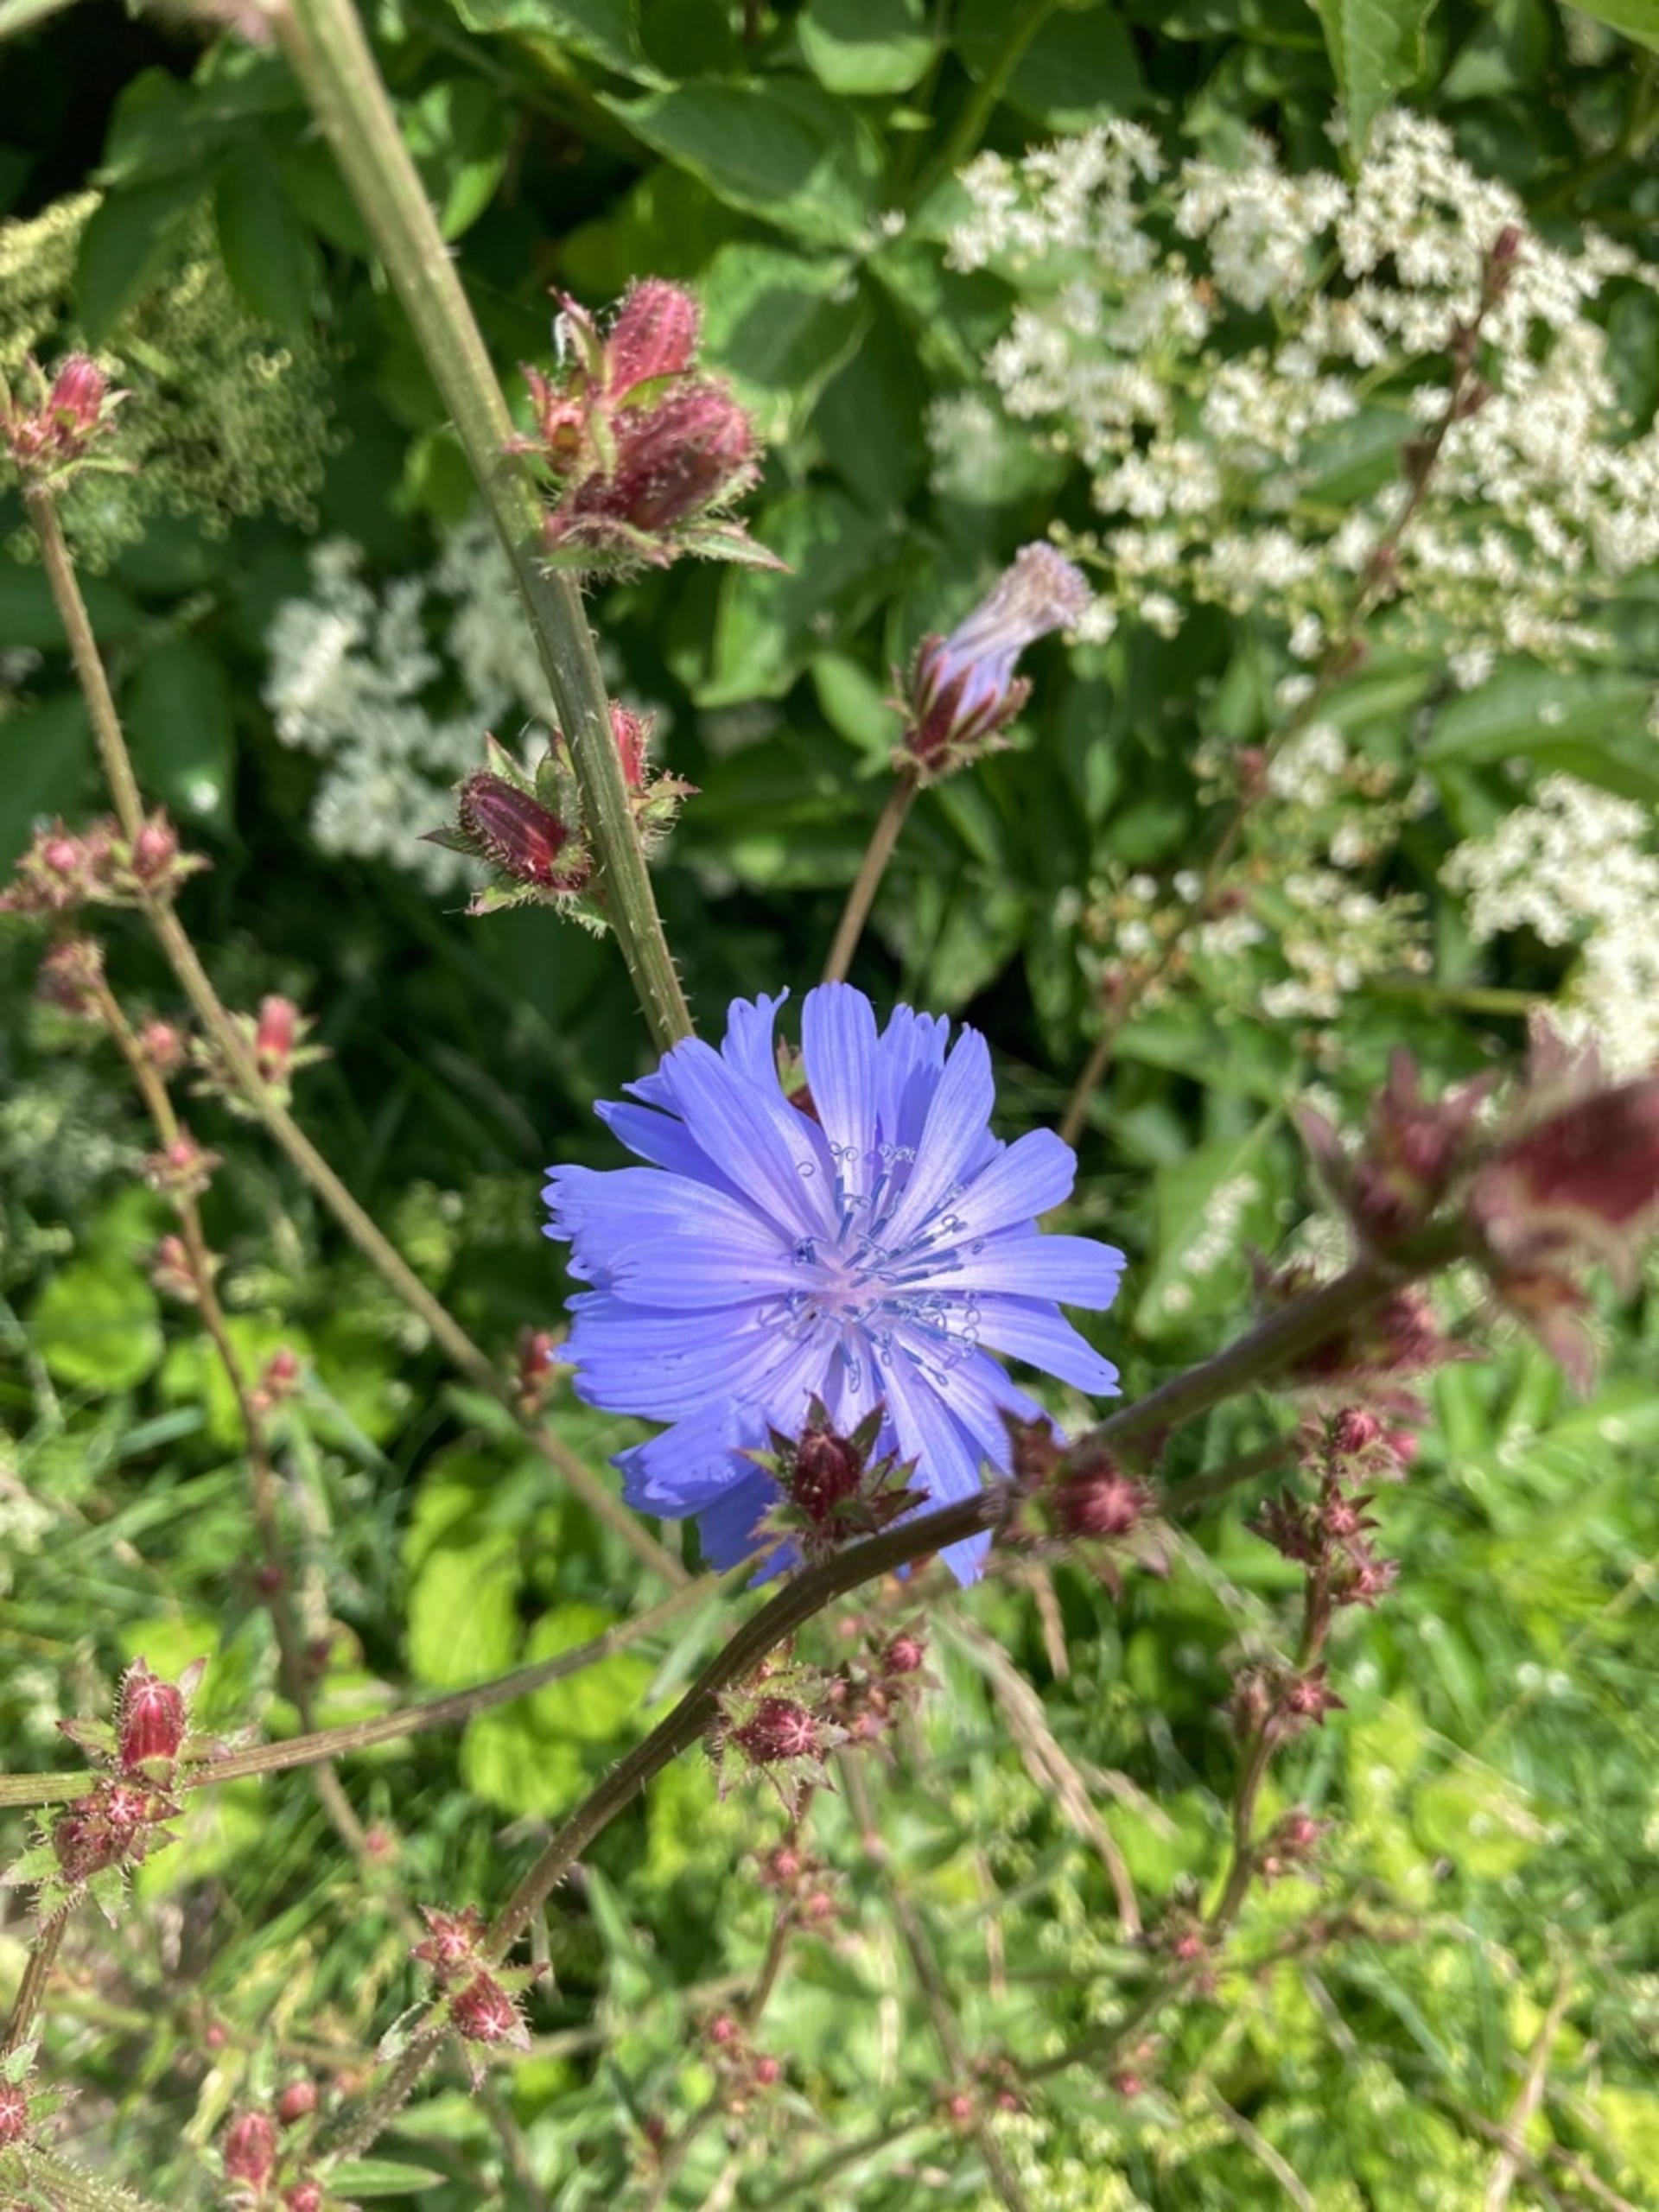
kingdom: Plantae
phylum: Tracheophyta
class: Magnoliopsida
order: Asterales
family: Asteraceae
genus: Cichorium
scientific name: Cichorium intybus
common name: Cikorie
